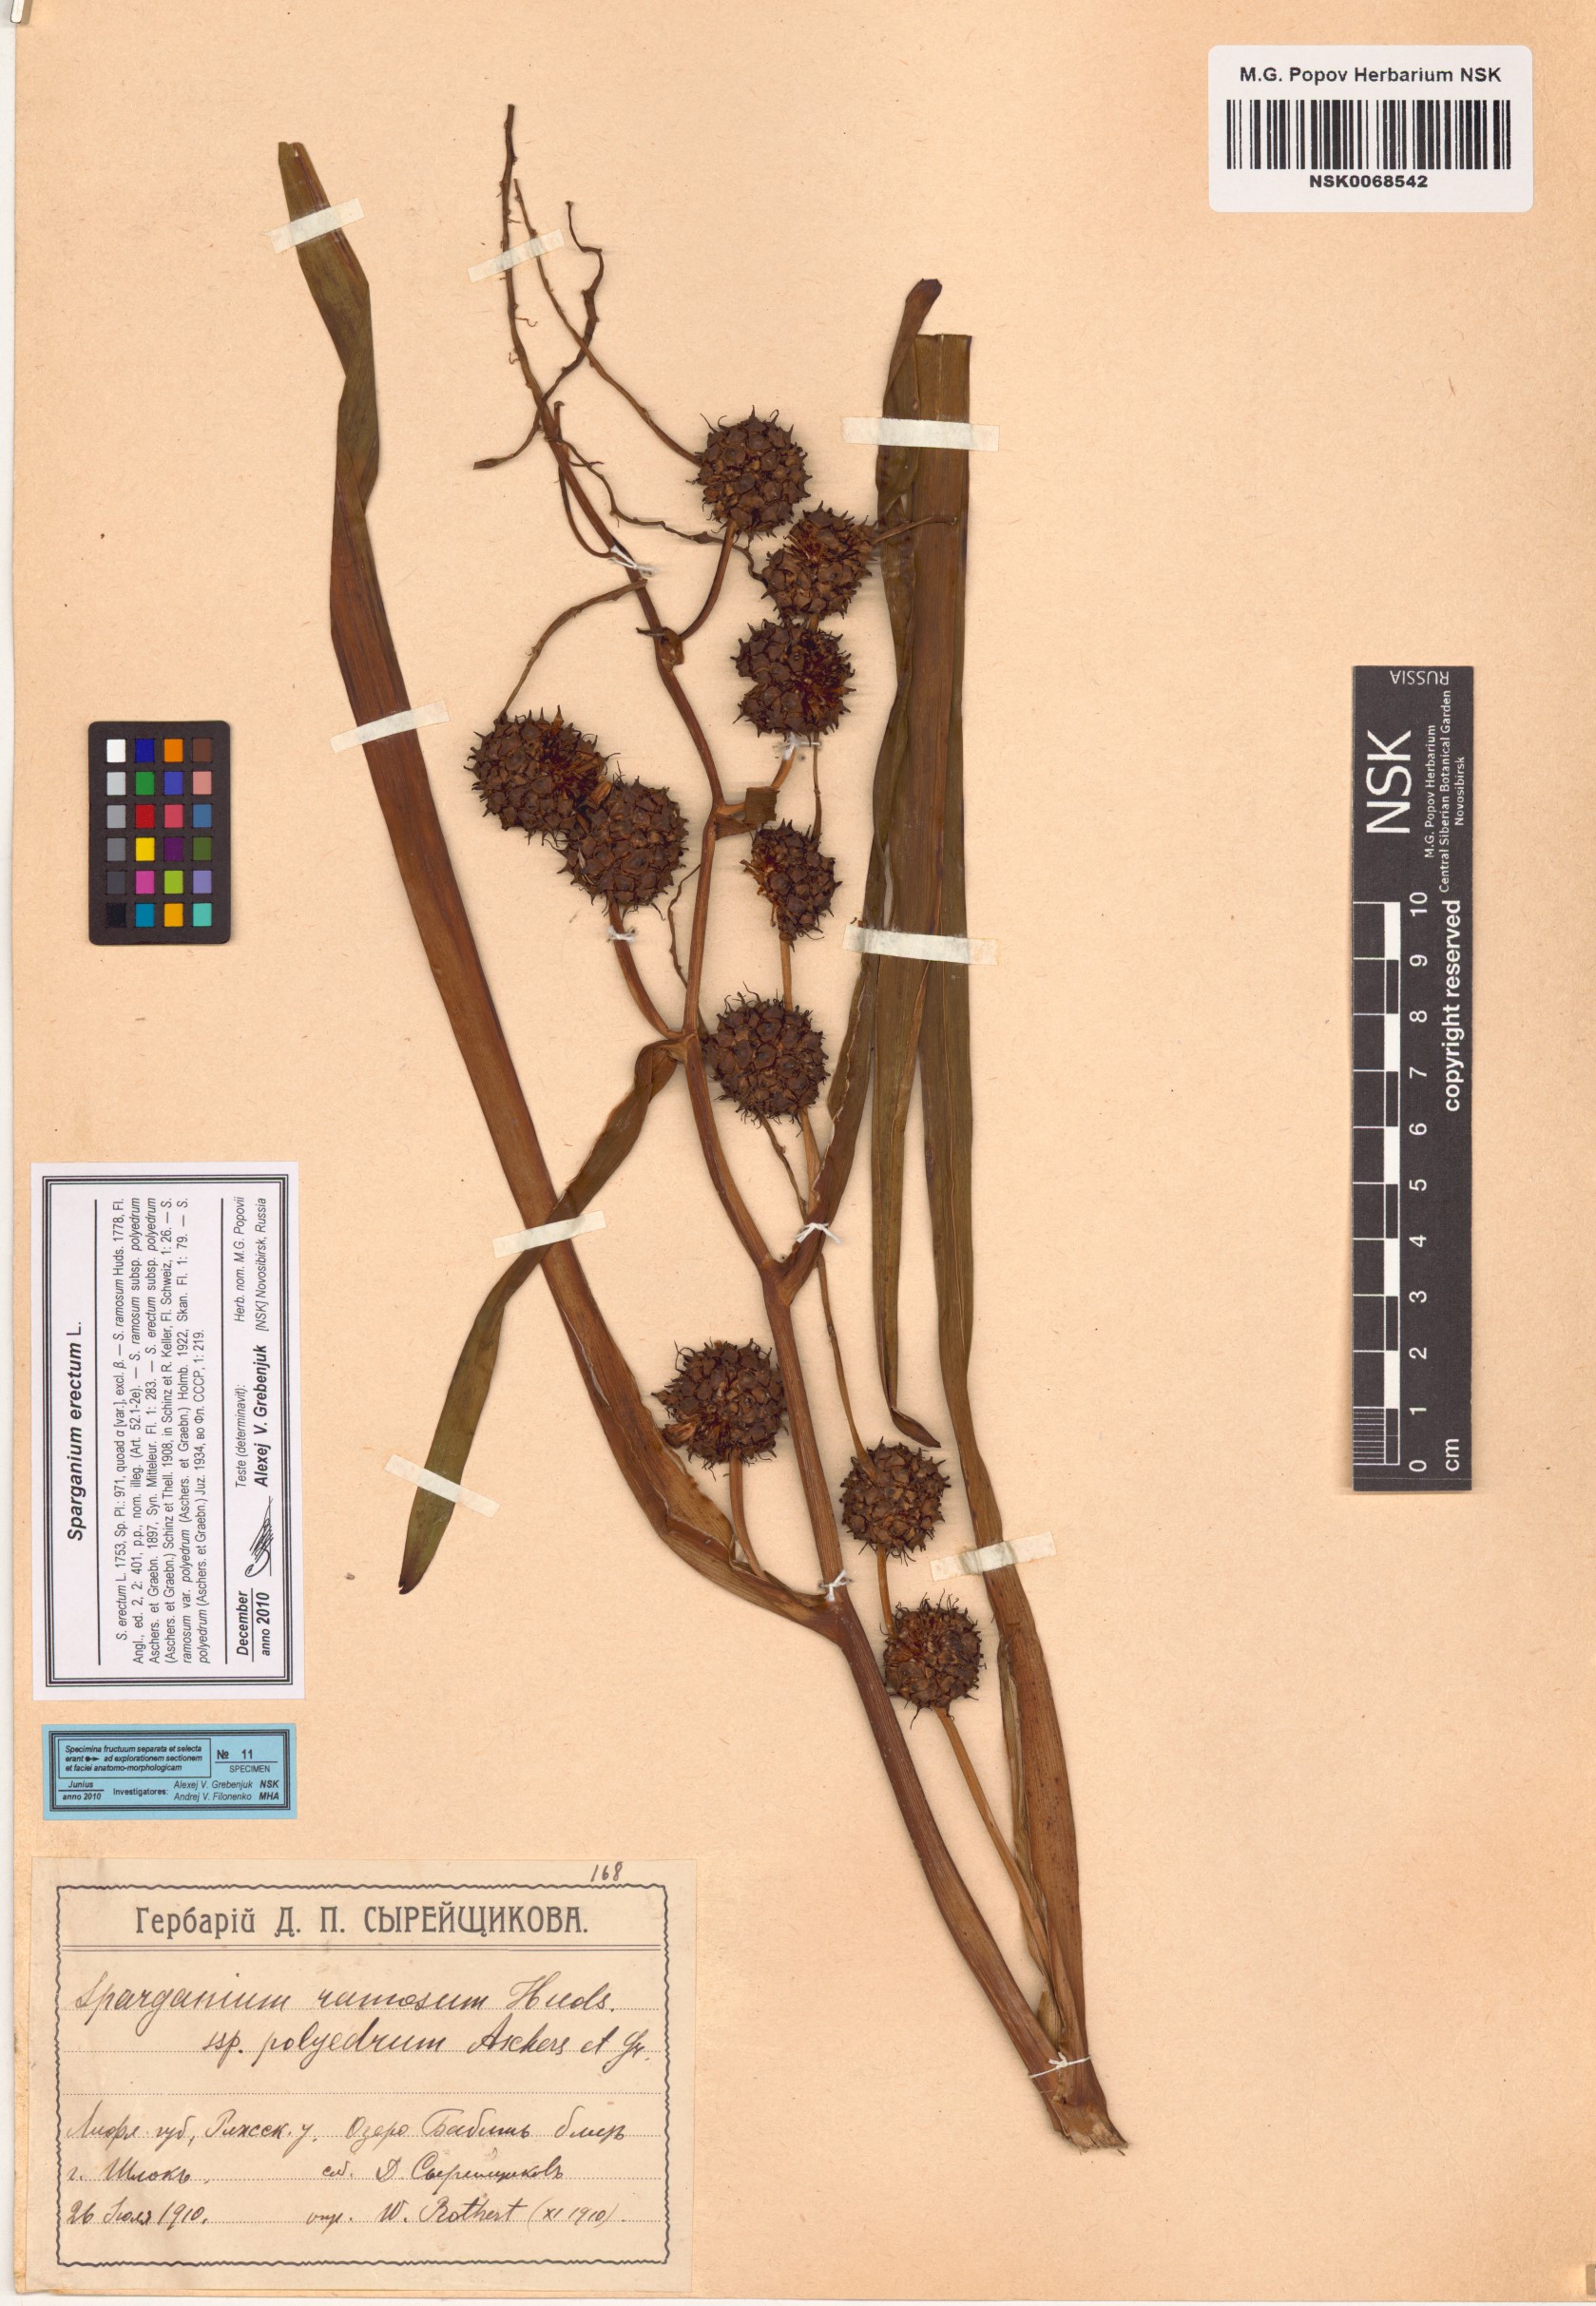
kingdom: Plantae
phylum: Tracheophyta
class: Liliopsida
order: Poales
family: Typhaceae
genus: Sparganium
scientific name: Sparganium erectum
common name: Branched bur-reed
